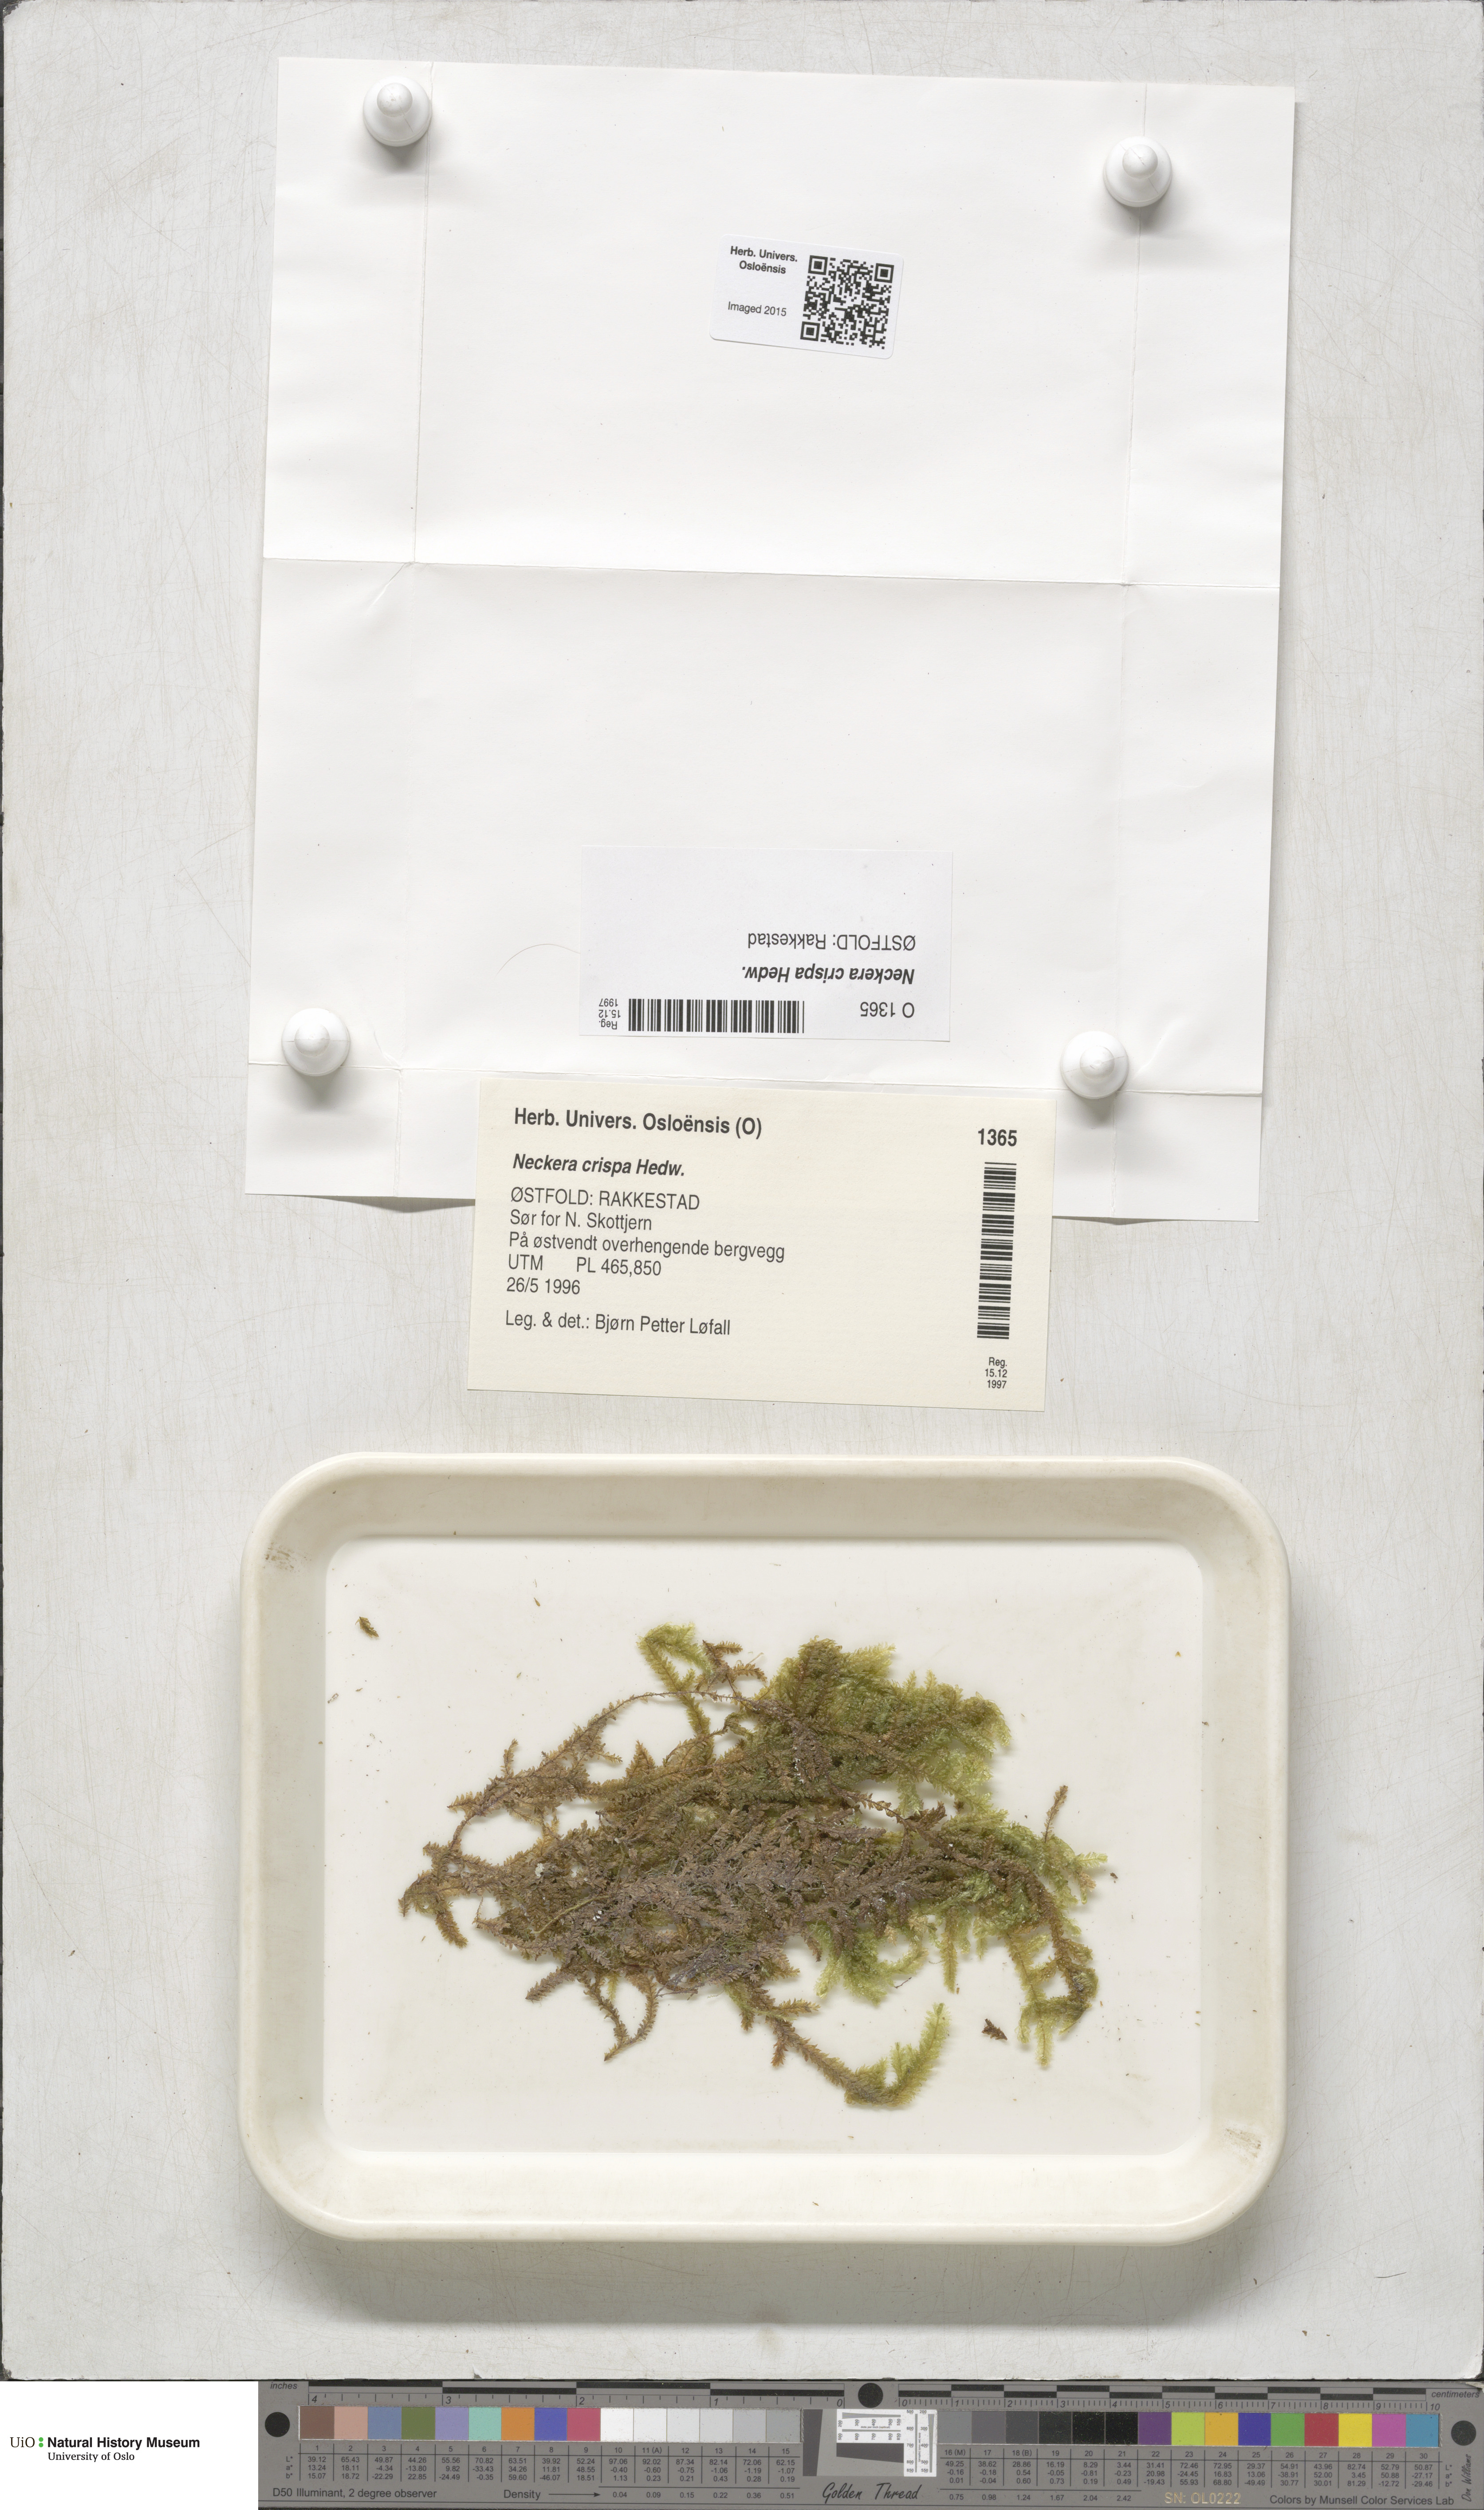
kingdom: Plantae
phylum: Bryophyta
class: Bryopsida
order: Hypnales
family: Neckeraceae
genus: Exsertotheca
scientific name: Exsertotheca crispa
